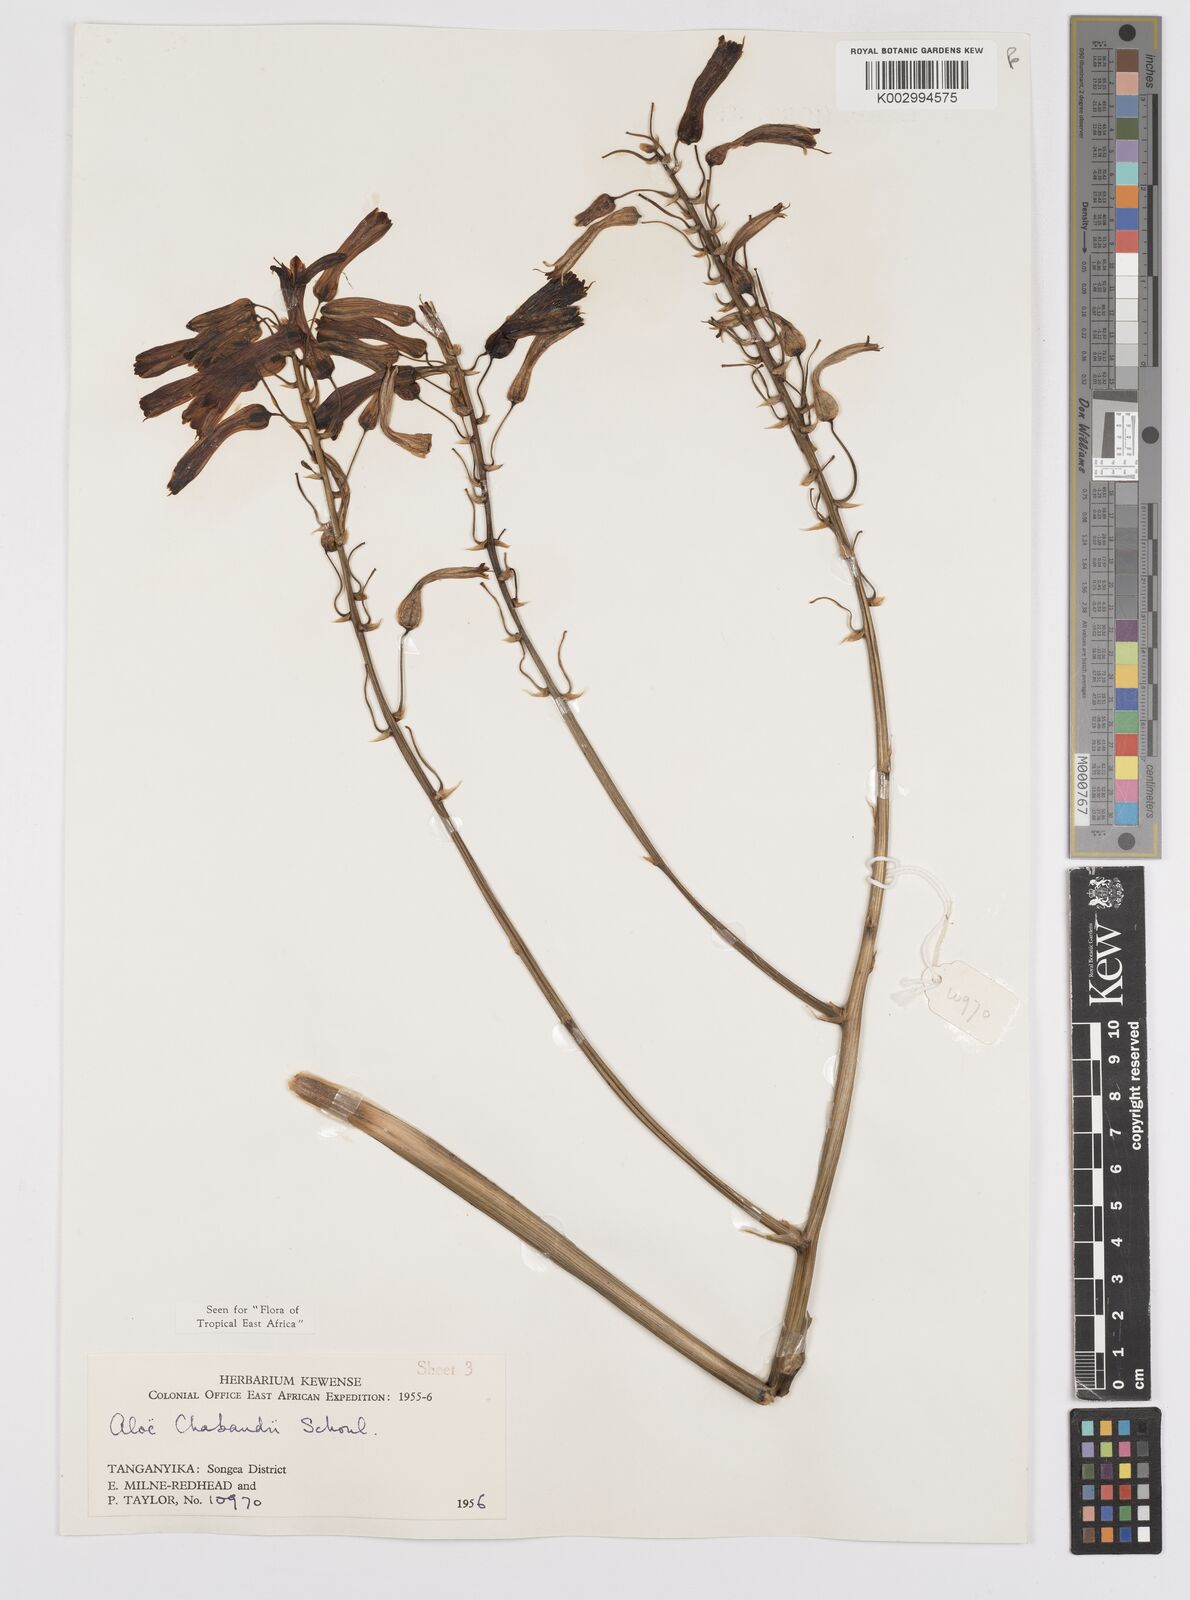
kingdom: Plantae
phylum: Tracheophyta
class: Liliopsida
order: Asparagales
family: Asphodelaceae
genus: Aloe
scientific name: Aloe chabaudii
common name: Chabaud's aloe
